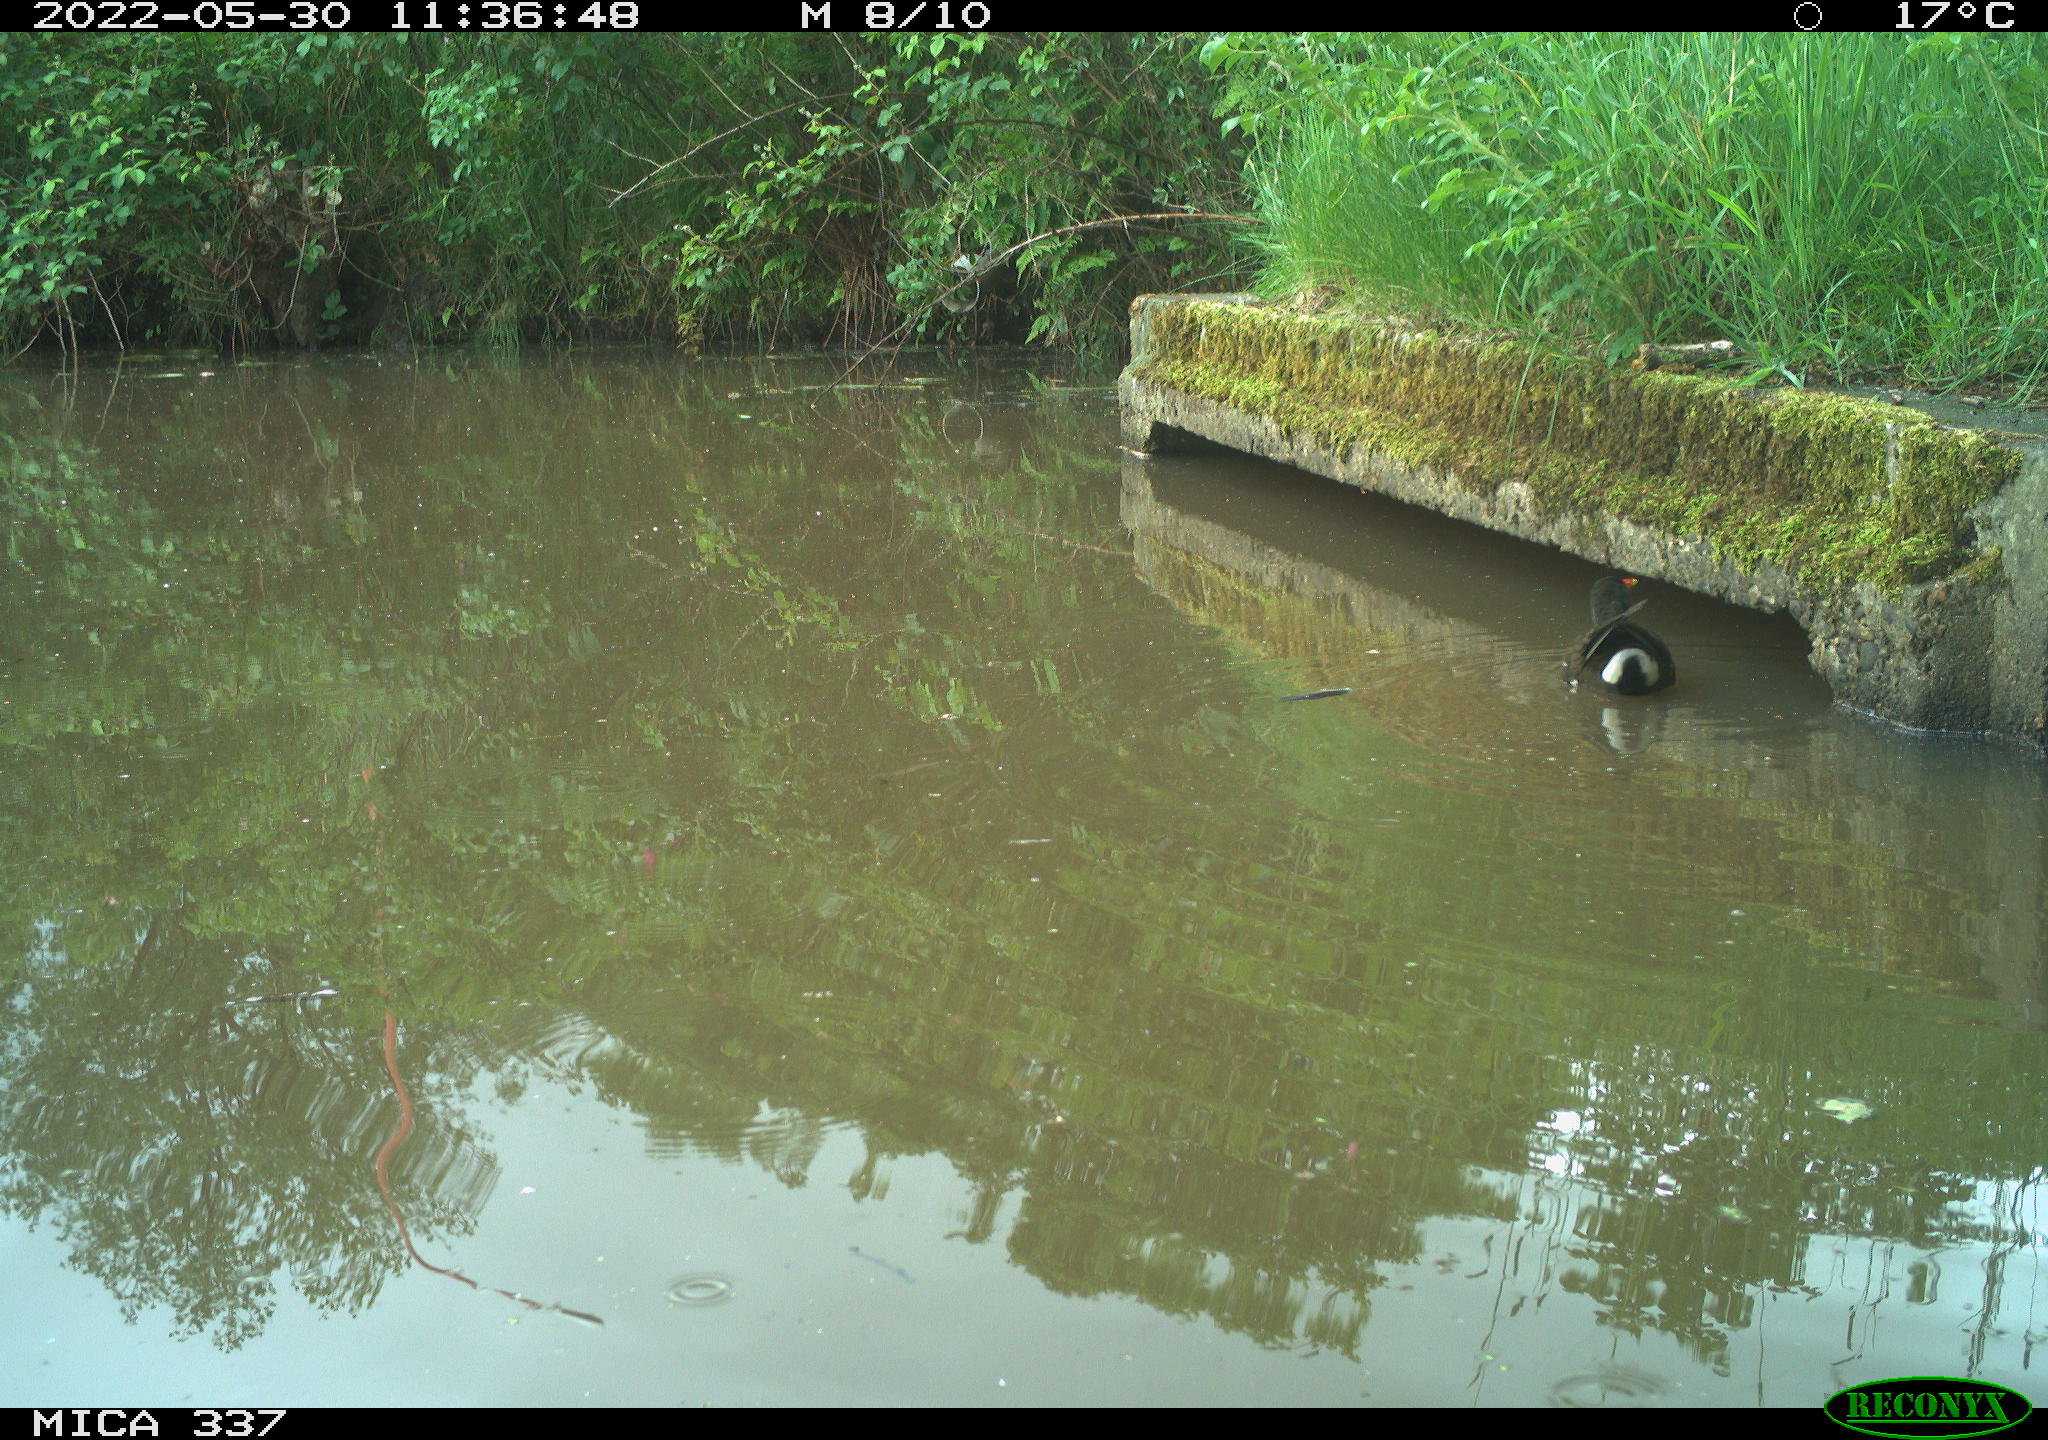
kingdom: Animalia
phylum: Chordata
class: Aves
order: Gruiformes
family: Rallidae
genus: Gallinula
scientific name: Gallinula chloropus
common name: Common moorhen
